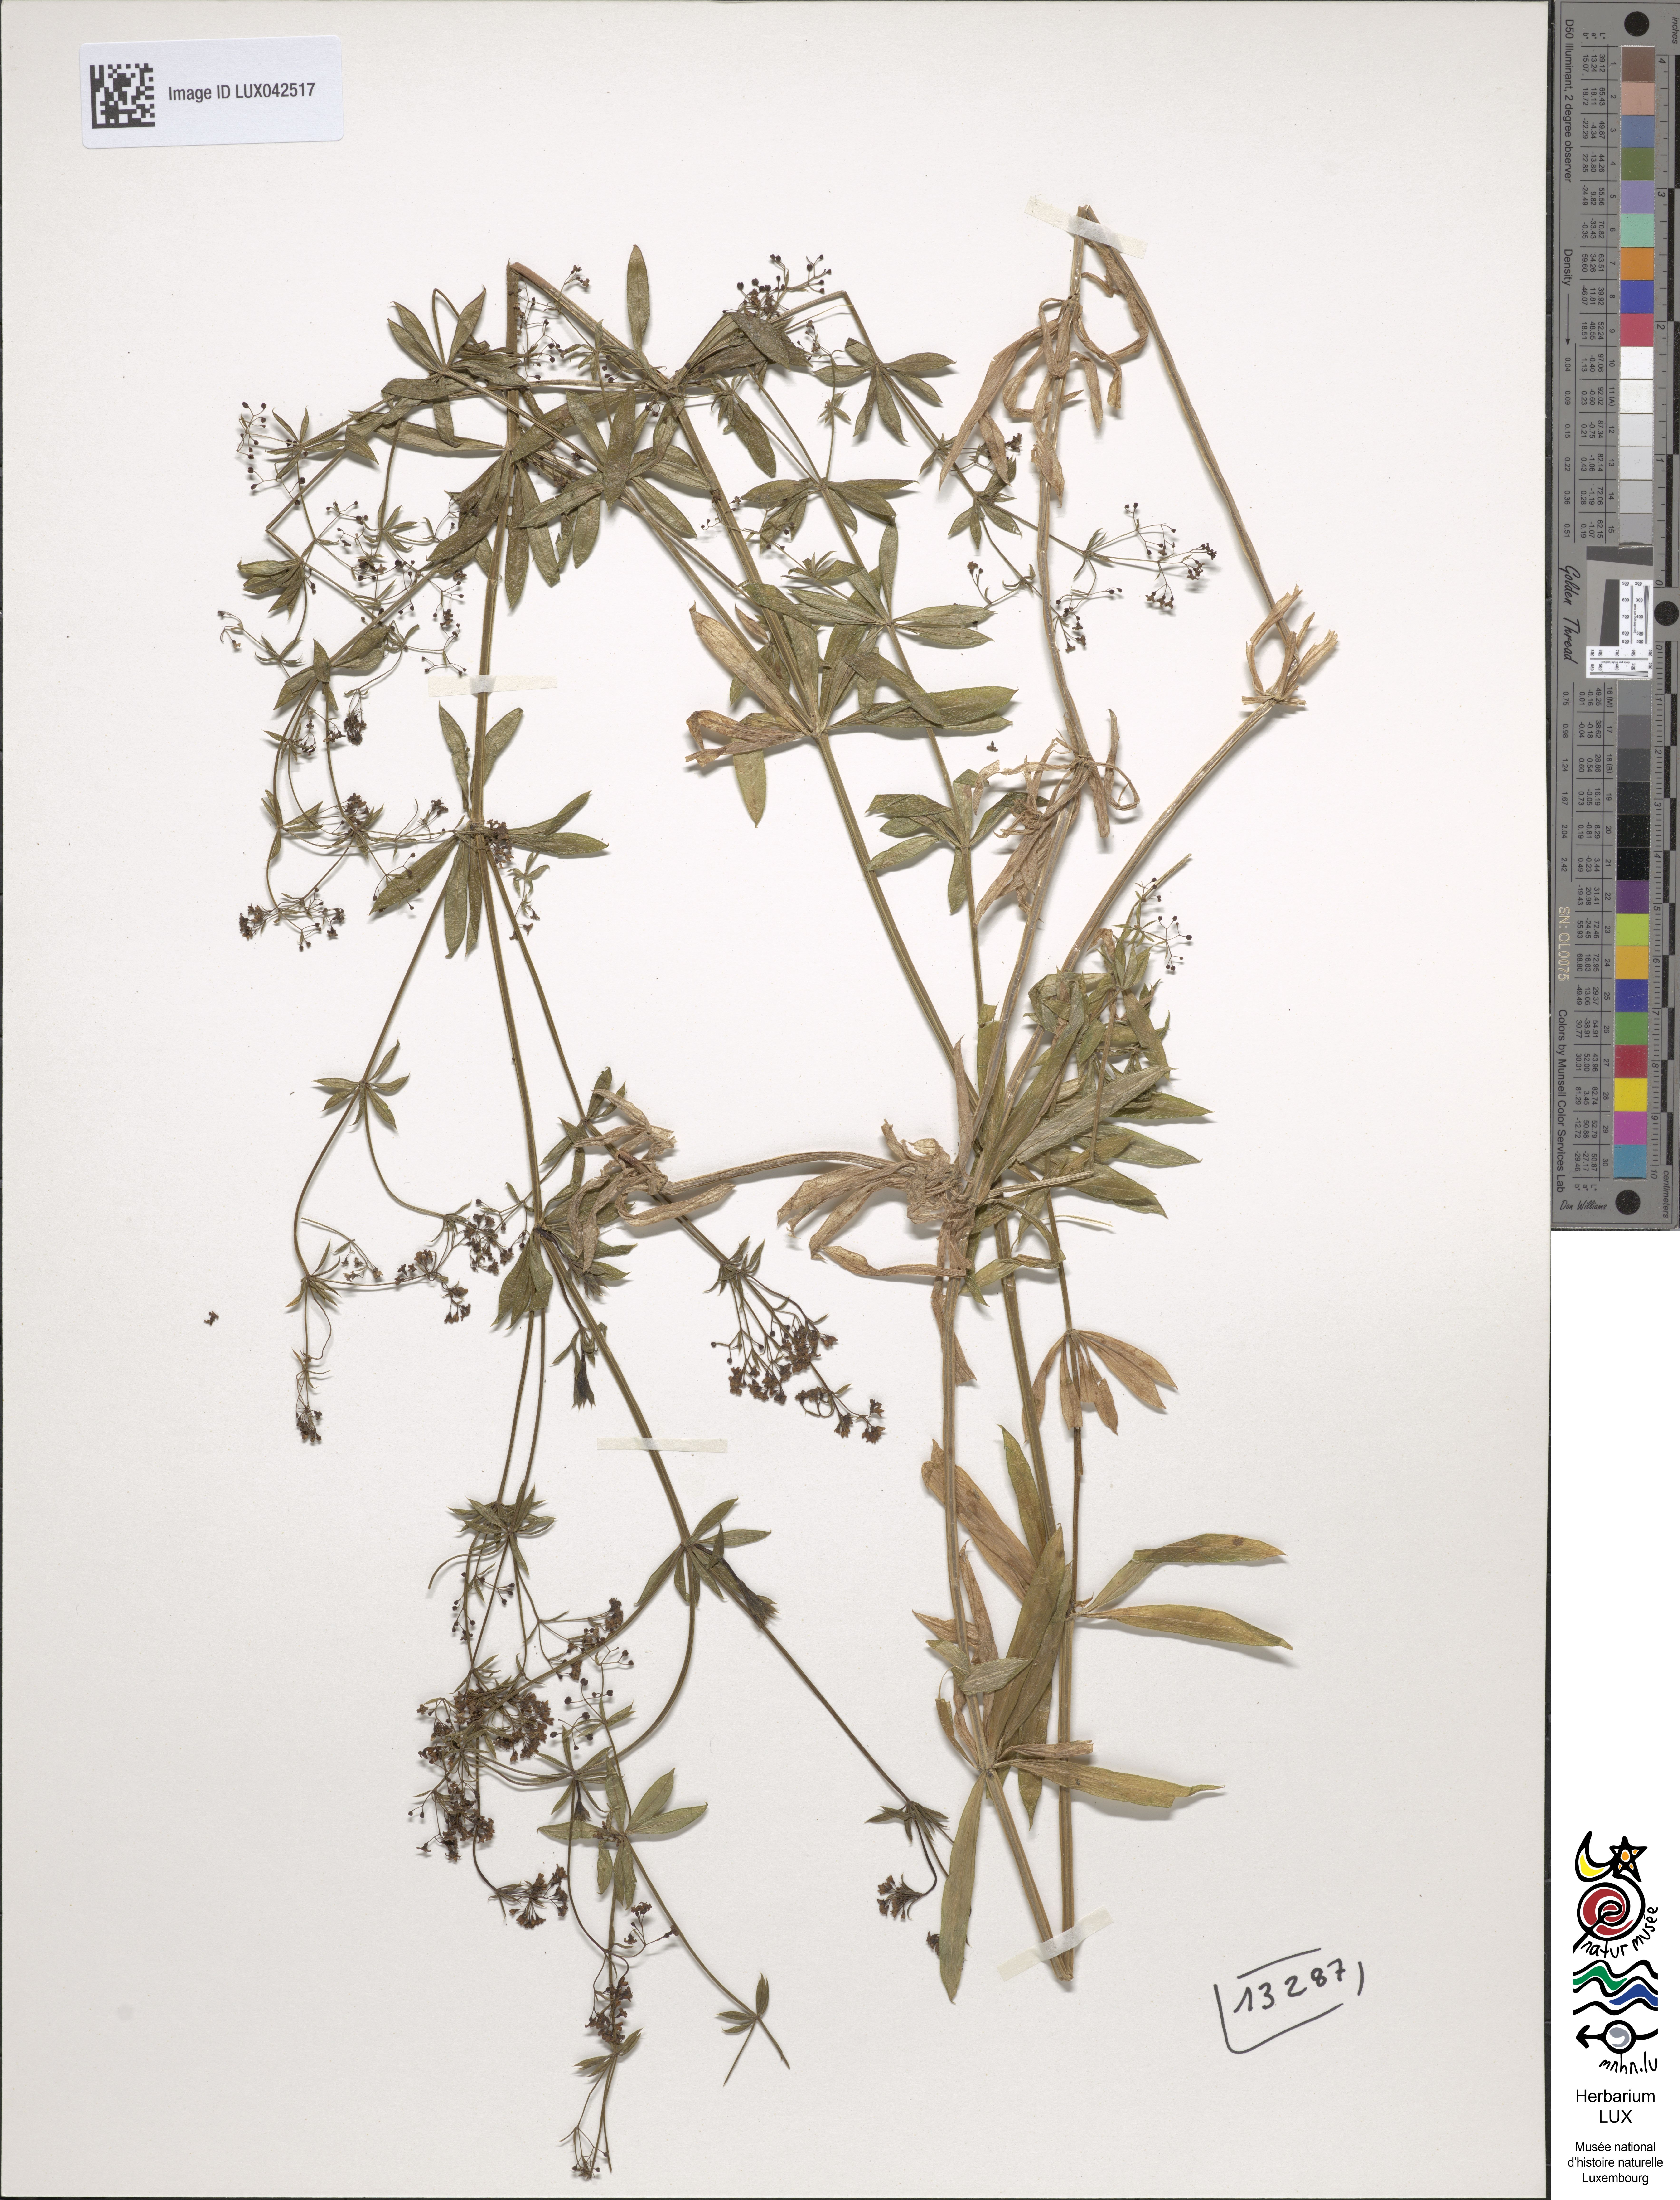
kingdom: Plantae
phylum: Tracheophyta
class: Magnoliopsida
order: Gentianales
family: Rubiaceae
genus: Galium
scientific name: Galium rivale
